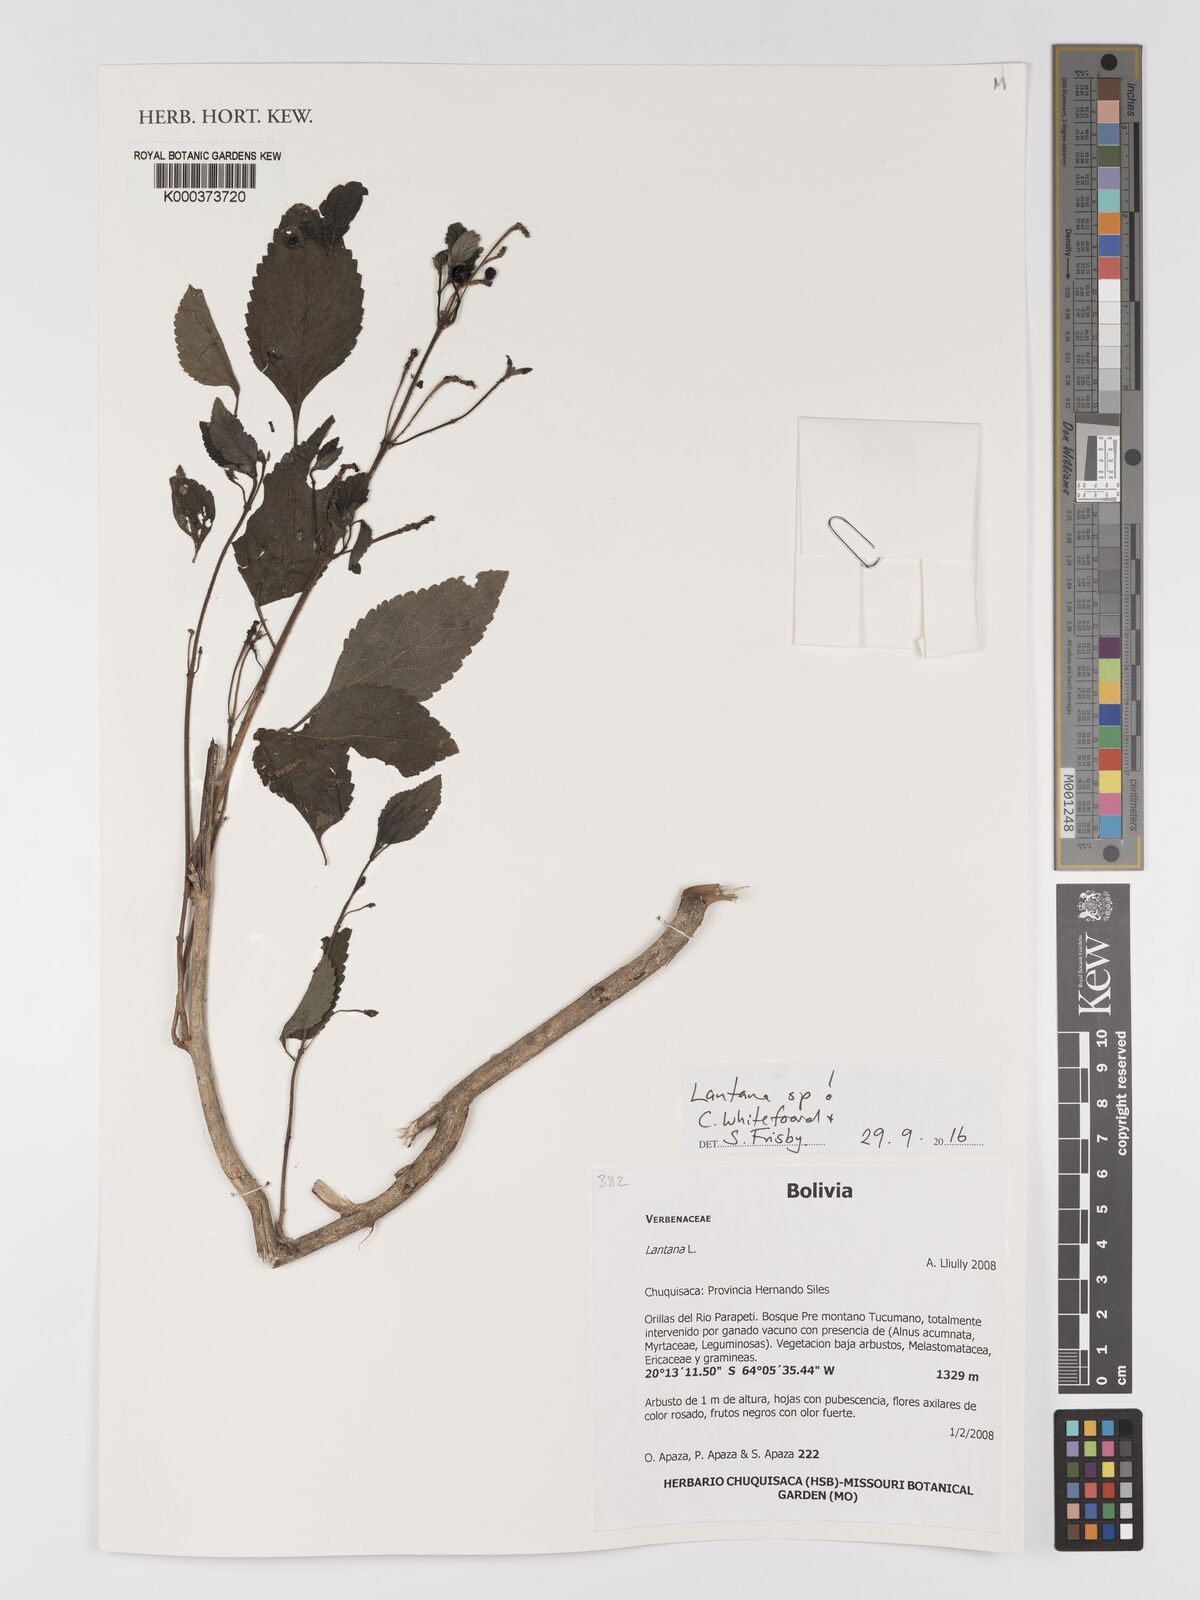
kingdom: Plantae
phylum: Tracheophyta
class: Magnoliopsida
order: Lamiales
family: Verbenaceae
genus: Lantana
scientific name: Lantana
